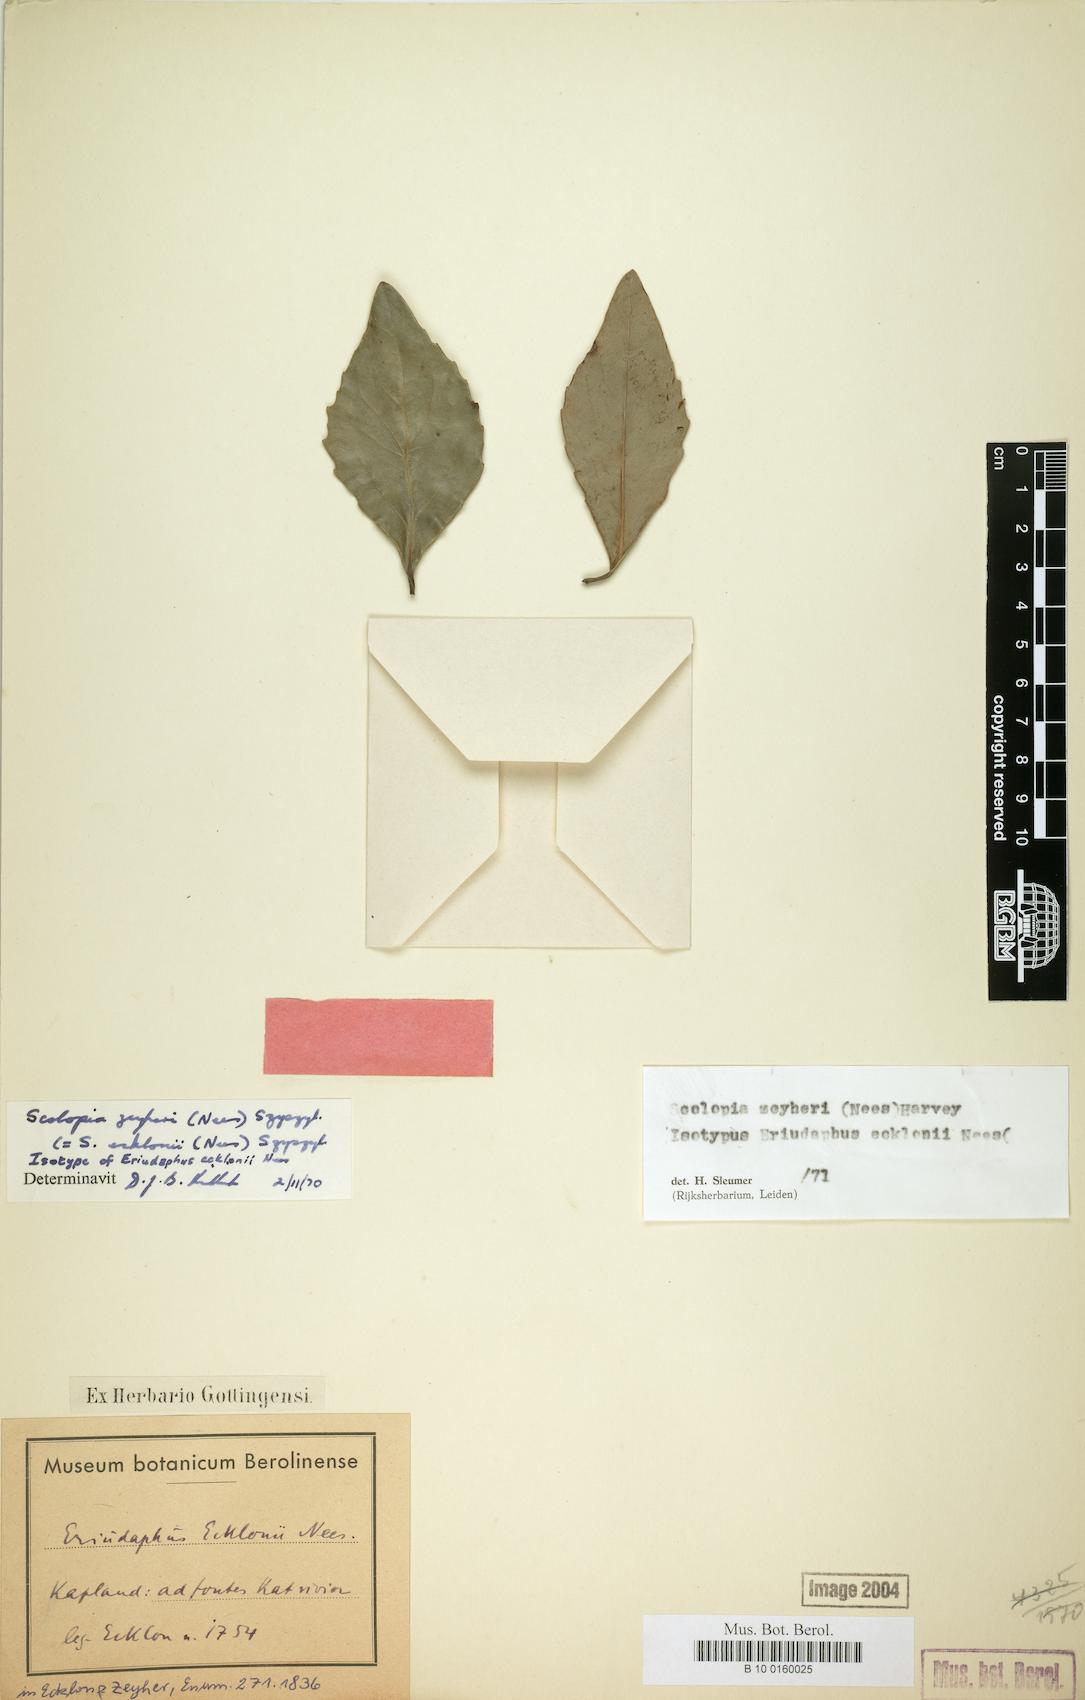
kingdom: Plantae
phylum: Tracheophyta
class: Magnoliopsida
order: Malpighiales
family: Salicaceae
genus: Scolopia
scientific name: Scolopia zeyheri
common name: Thorn pear
